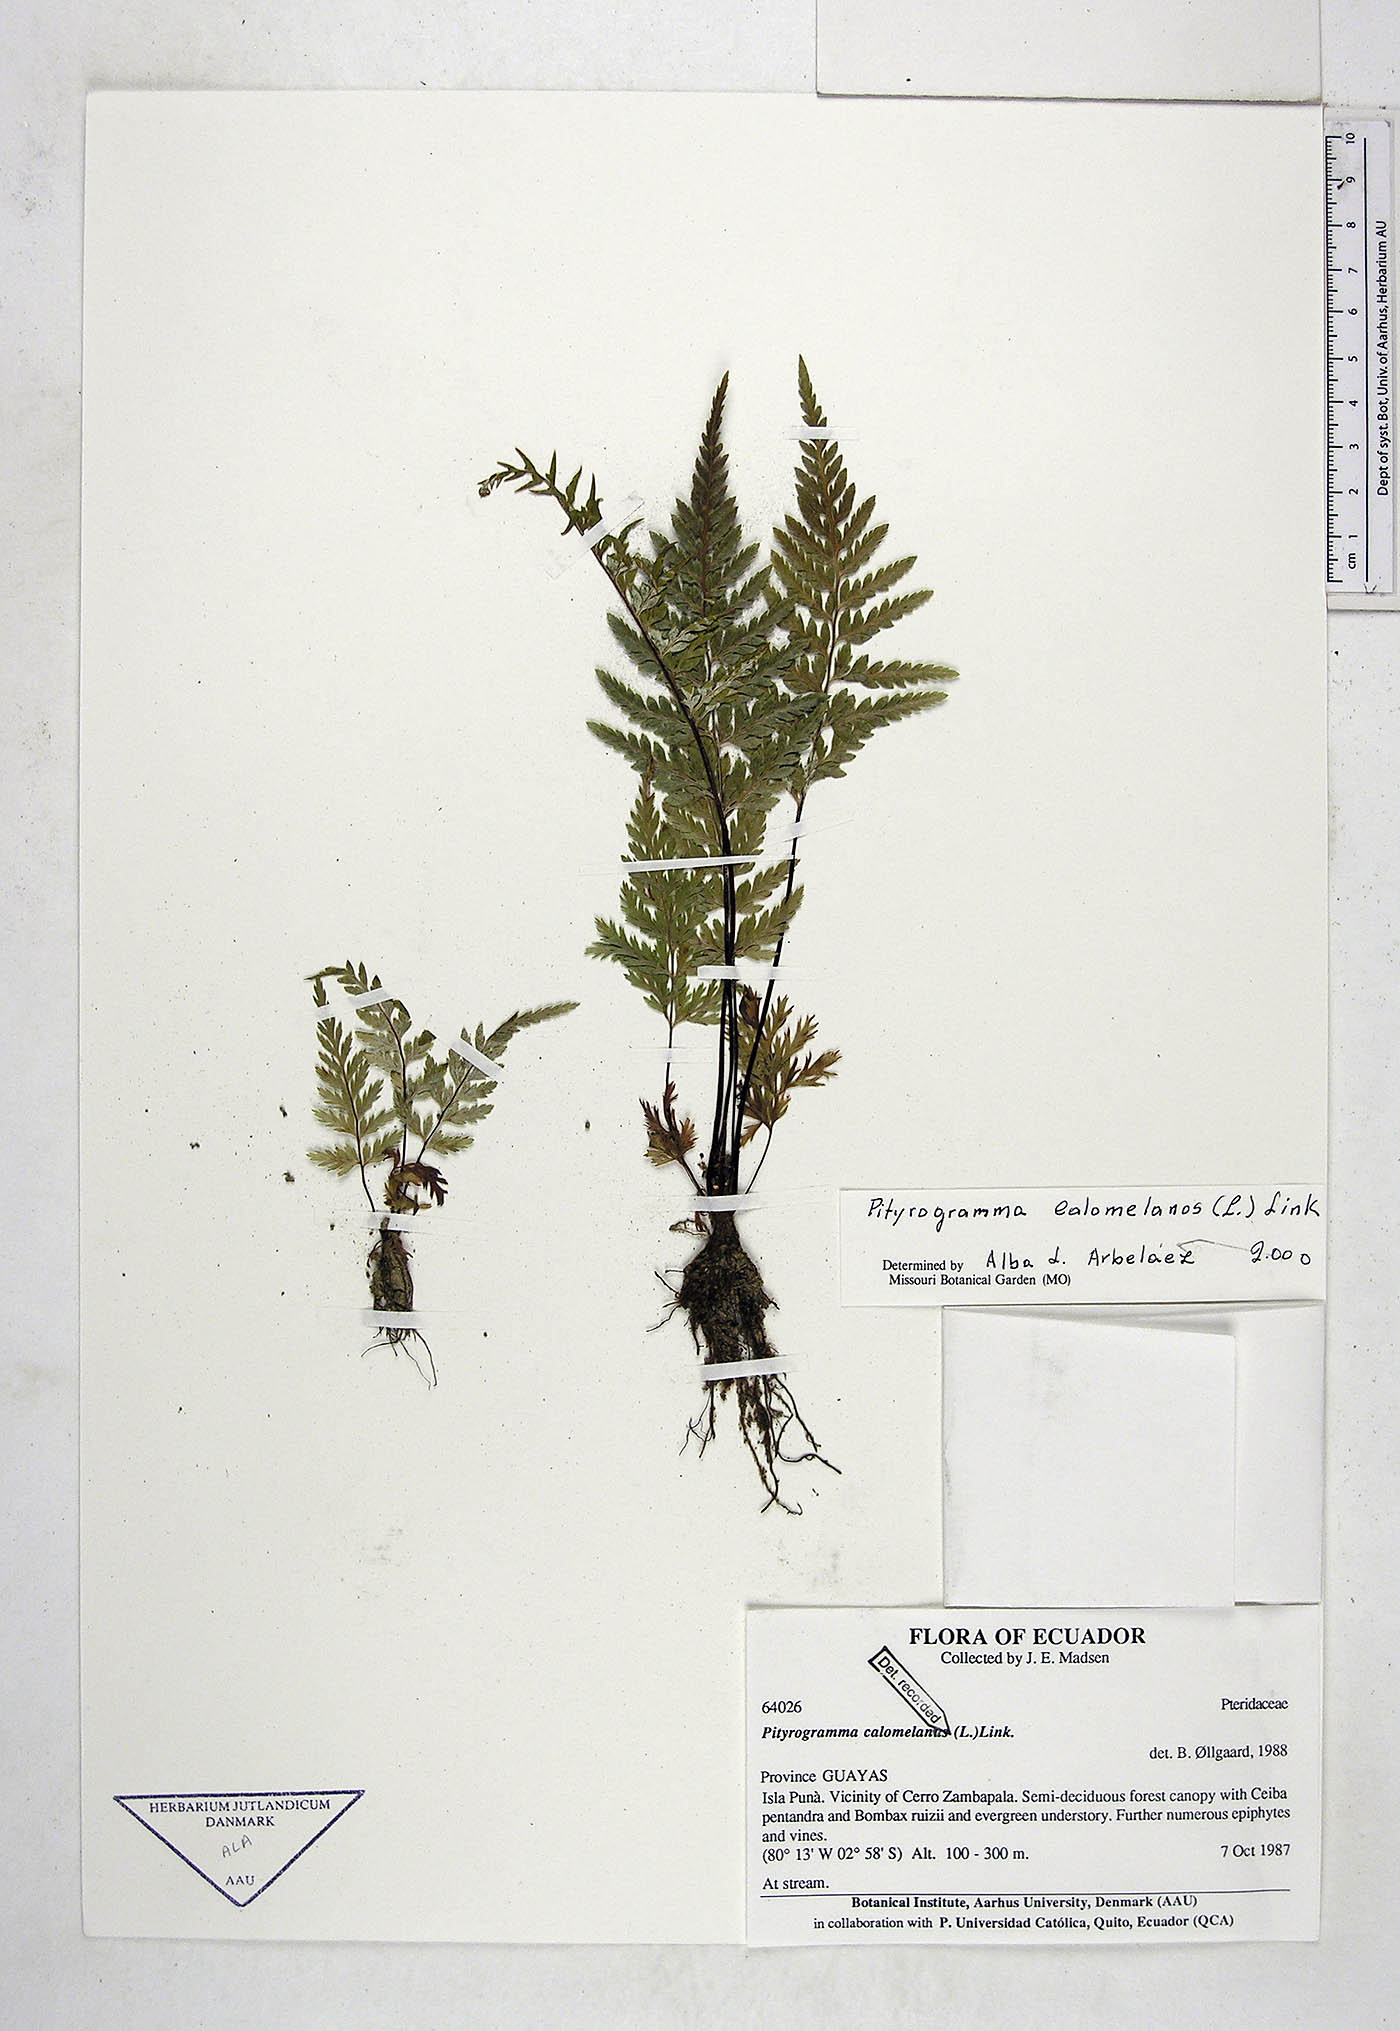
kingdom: Plantae
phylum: Tracheophyta
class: Polypodiopsida
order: Polypodiales
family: Pteridaceae
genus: Pityrogramma
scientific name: Pityrogramma calomelanos
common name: Dixie silverback fern
